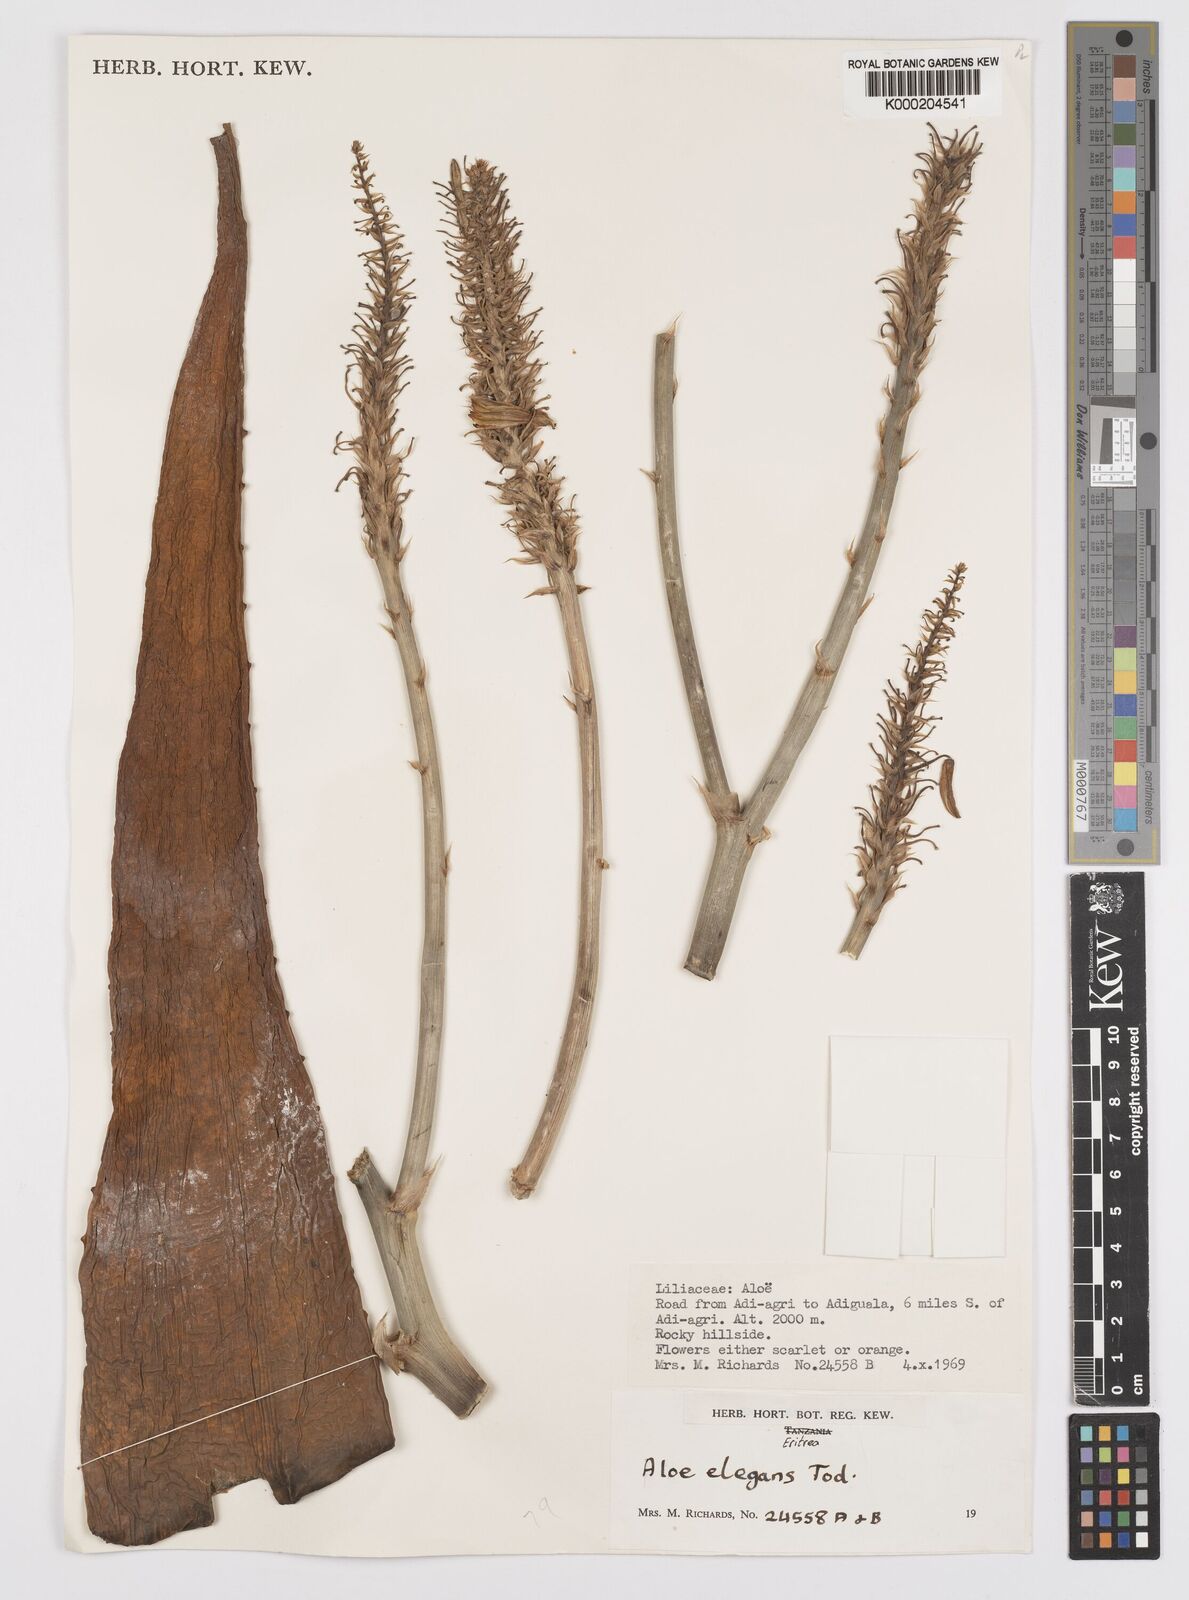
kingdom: Plantae
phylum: Tracheophyta
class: Liliopsida
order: Asparagales
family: Asphodelaceae
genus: Aloe
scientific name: Aloe elegans
